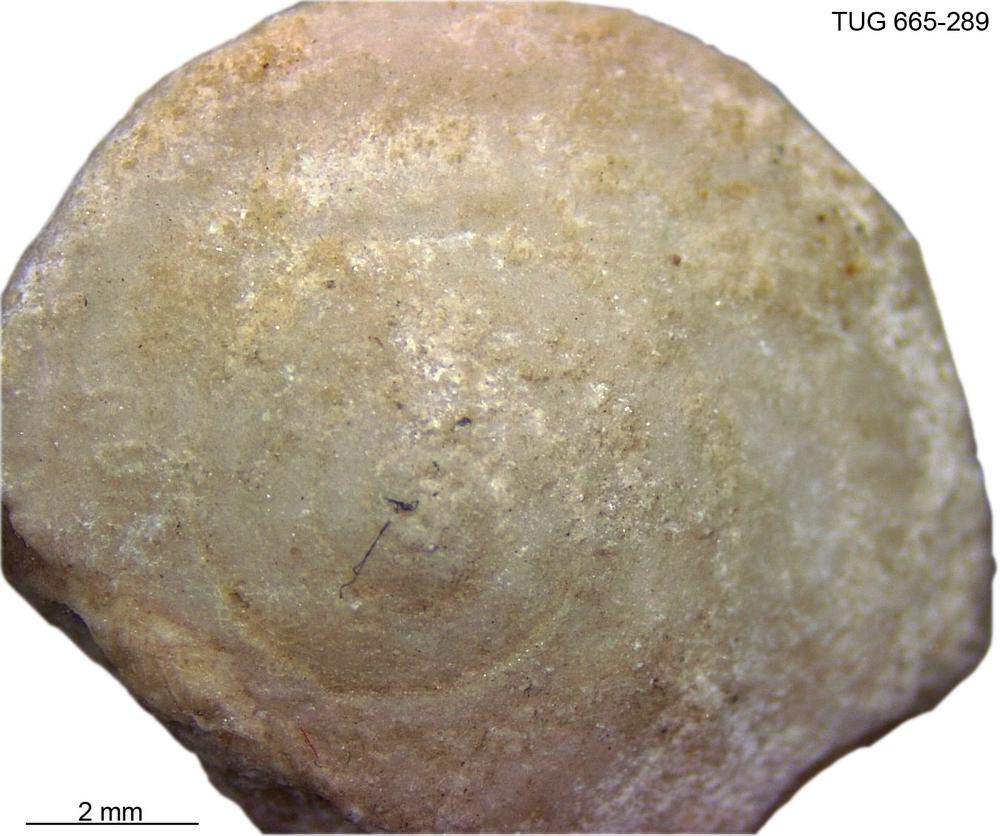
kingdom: Animalia
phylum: Mollusca
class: Gastropoda
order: Pleurotomariida
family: Planitrochidae
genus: Trochomphalus
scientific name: Trochomphalus Pycnomphalus borkholmiensis
